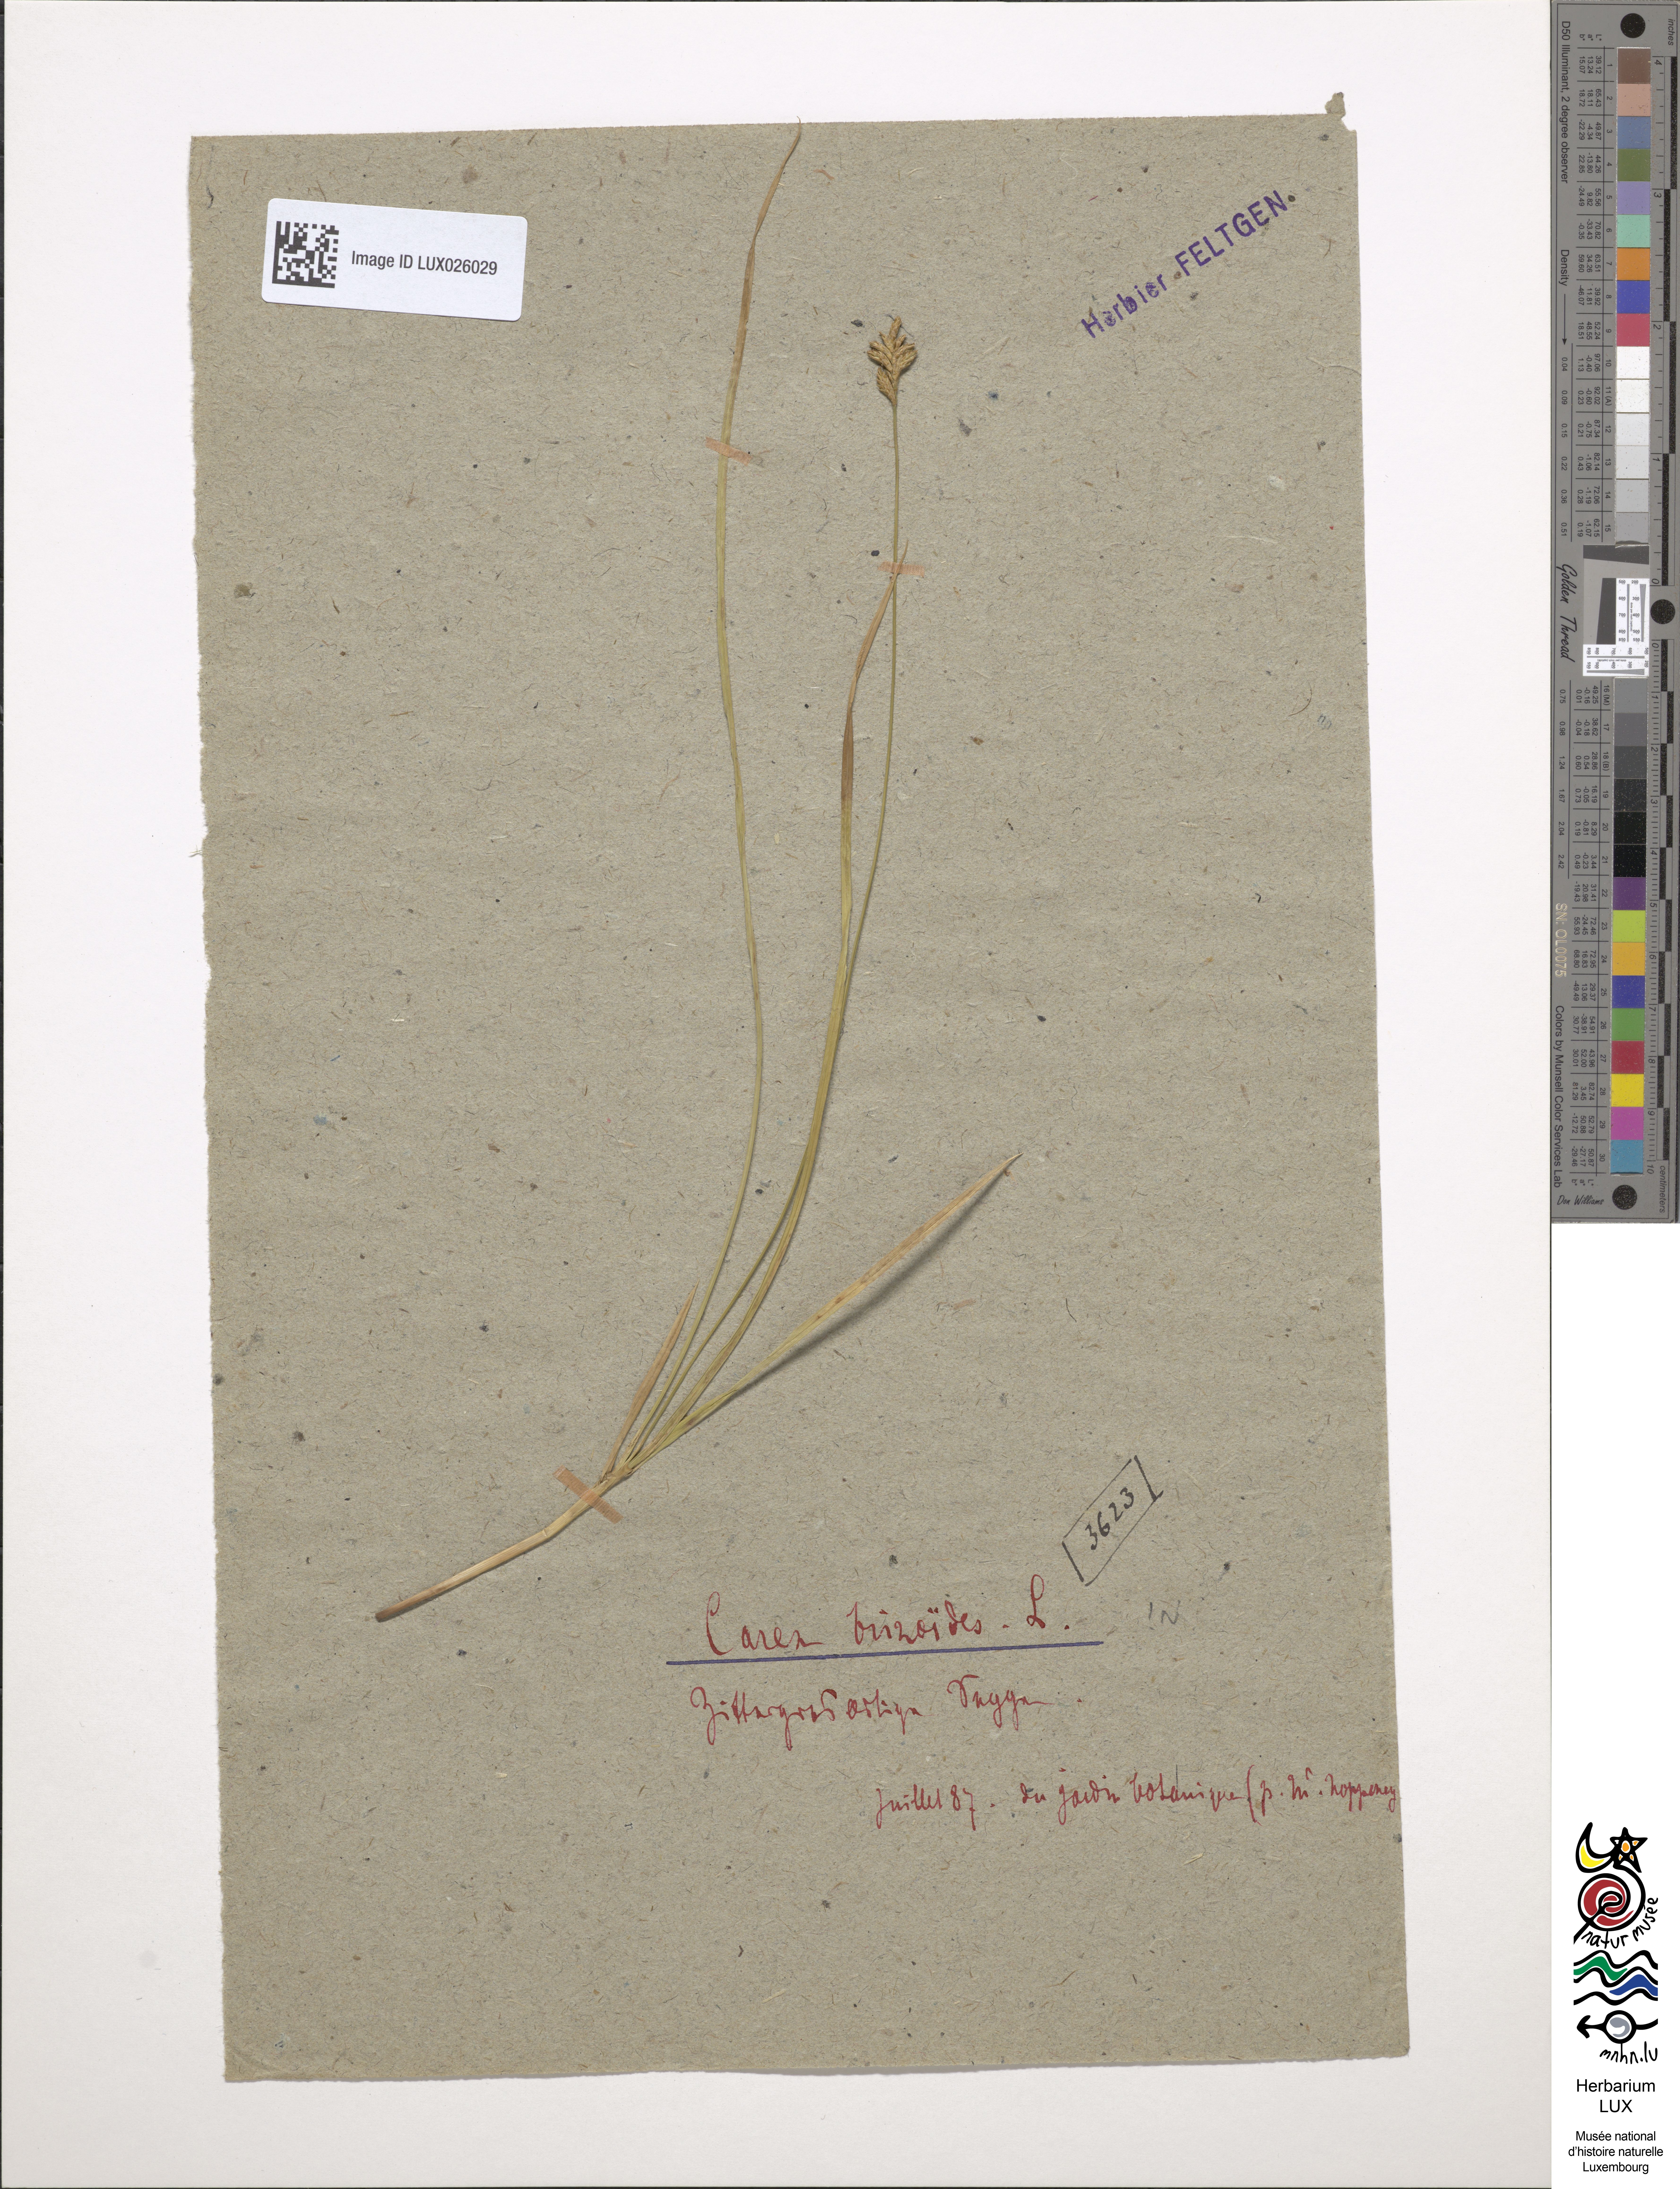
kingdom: Plantae
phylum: Tracheophyta
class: Liliopsida
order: Poales
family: Cyperaceae
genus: Carex
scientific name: Carex brizoides
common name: Quaking-grass sedge
